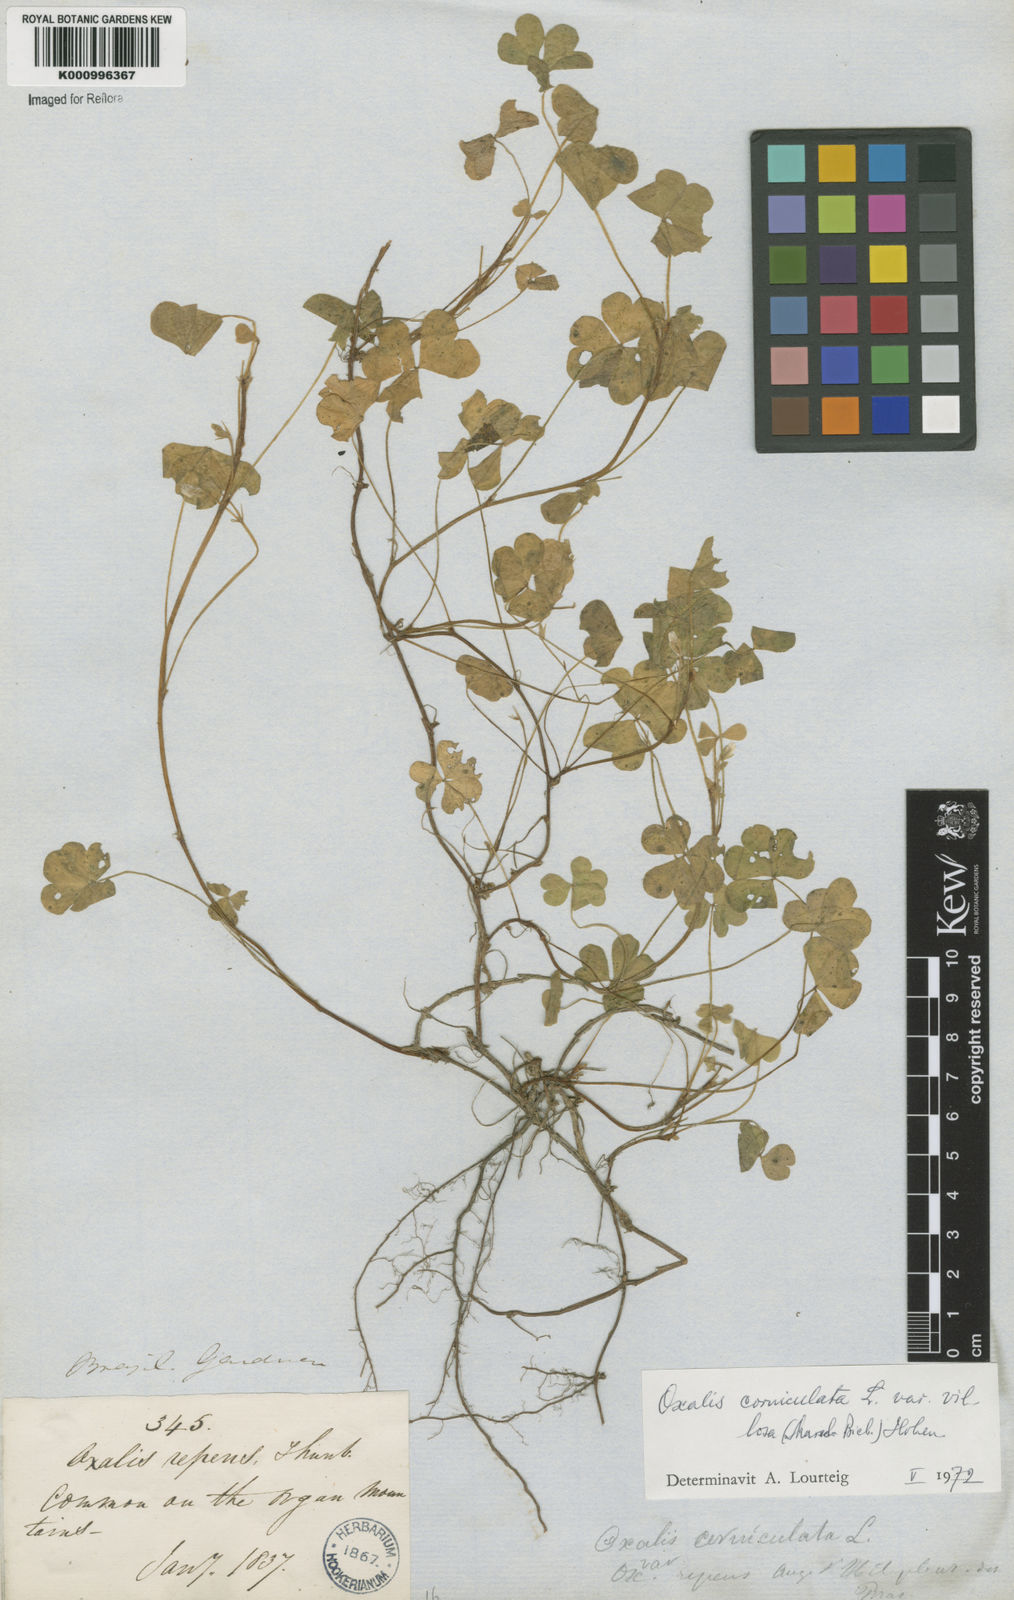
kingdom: Plantae
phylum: Tracheophyta
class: Magnoliopsida
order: Oxalidales
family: Oxalidaceae
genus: Oxalis
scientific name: Oxalis corniculata
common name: Procumbent yellow-sorrel
